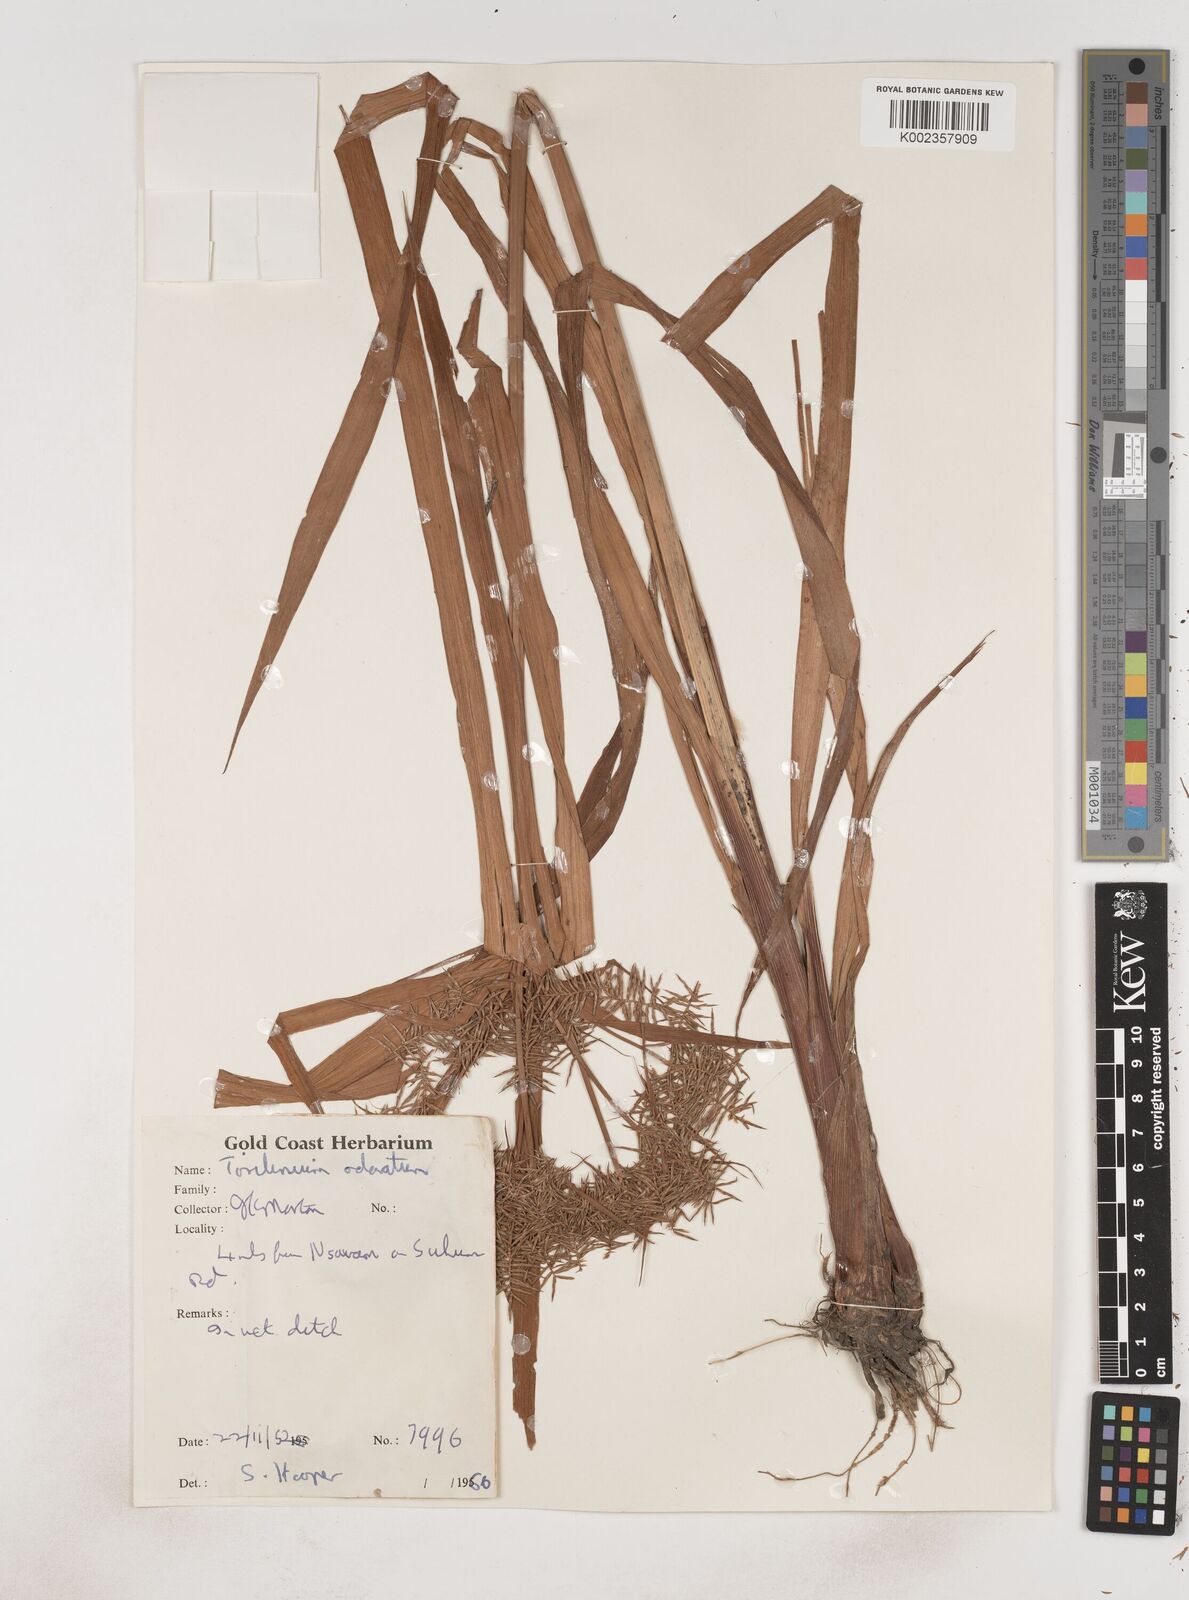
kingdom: Plantae
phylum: Tracheophyta
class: Liliopsida
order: Poales
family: Cyperaceae
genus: Cyperus
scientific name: Cyperus odoratus
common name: Fragrant flatsedge
